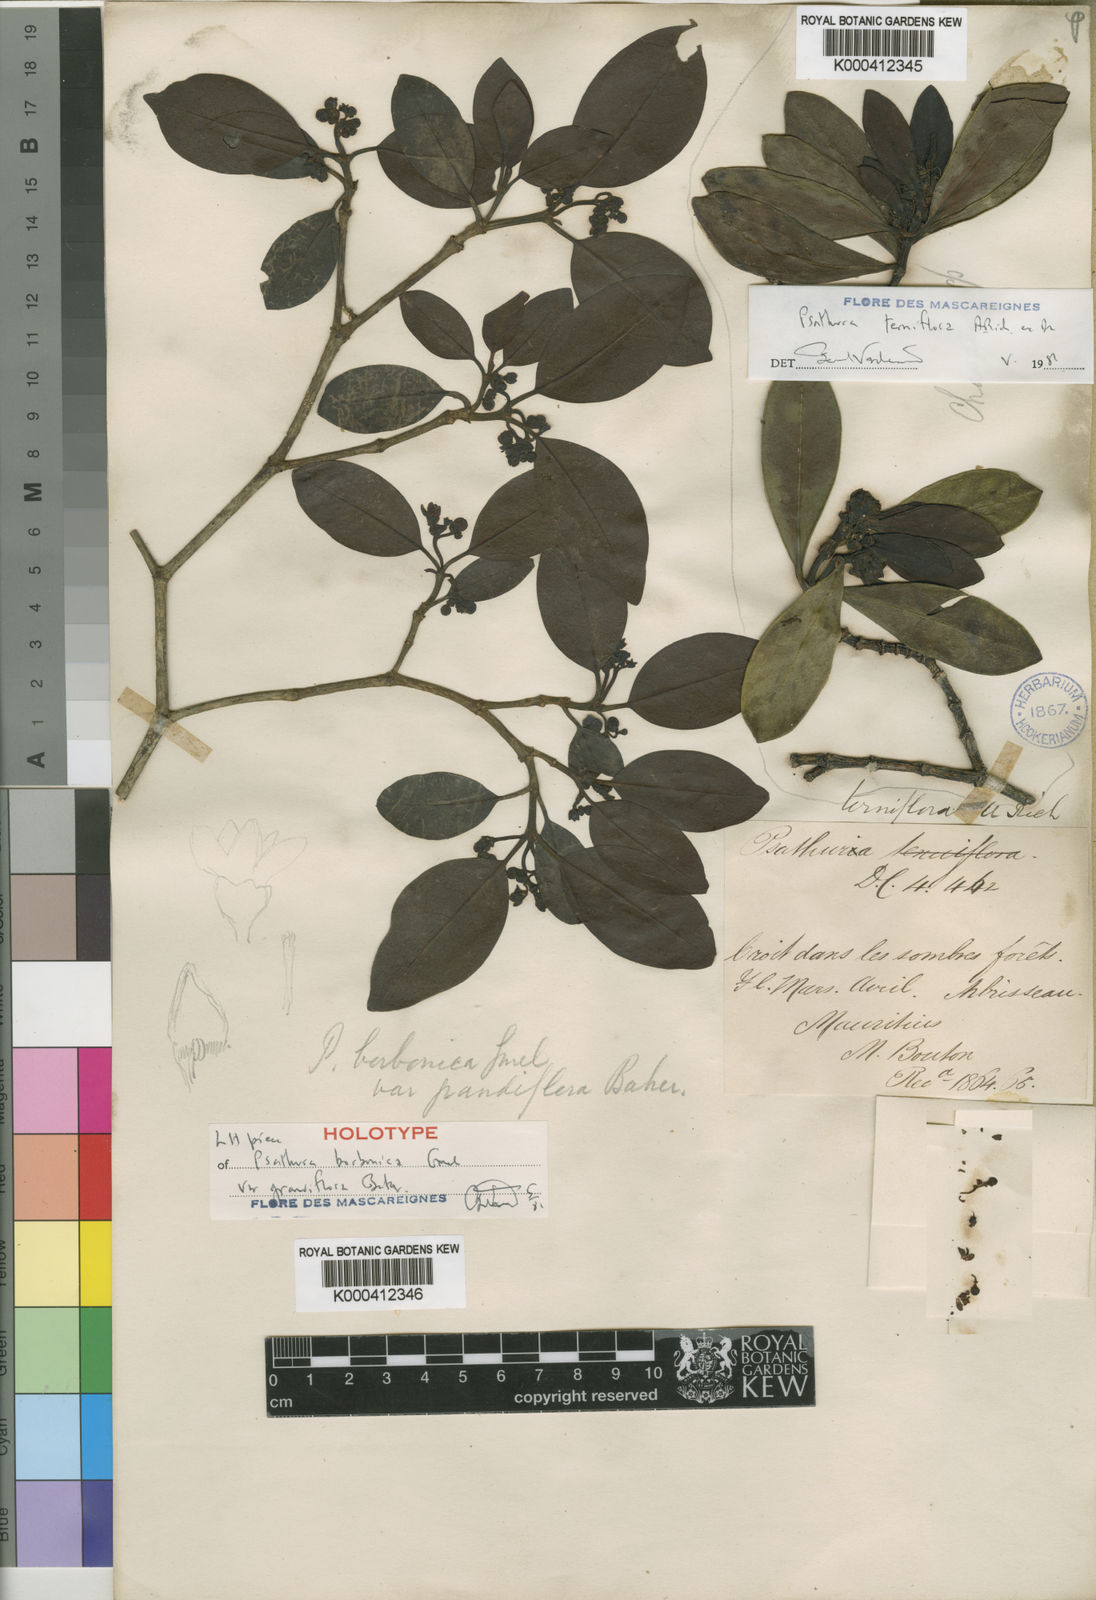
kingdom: Plantae
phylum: Tracheophyta
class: Magnoliopsida
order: Gentianales
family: Rubiaceae
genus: Psychotria
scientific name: Psychotria borbonica
